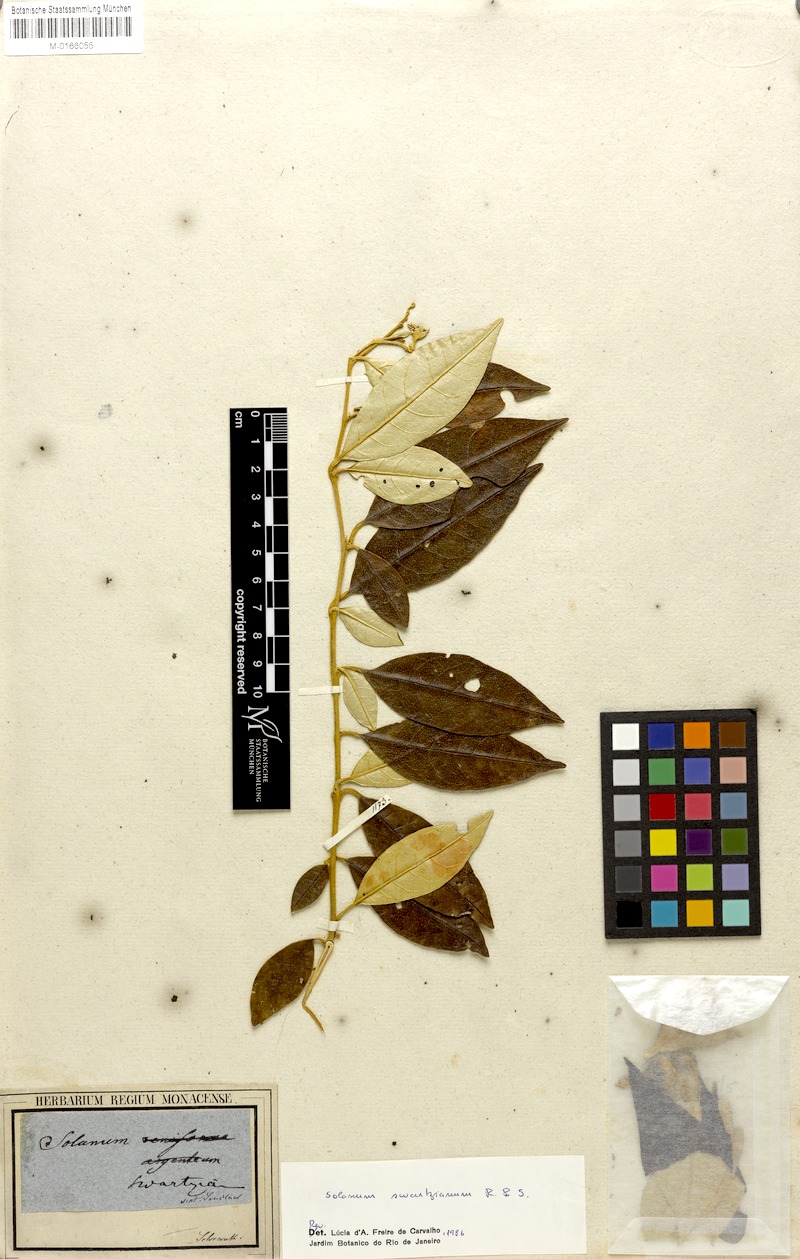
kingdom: Plantae
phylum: Tracheophyta
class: Magnoliopsida
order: Solanales
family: Solanaceae
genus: Solanum
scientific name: Solanum swartzianum
